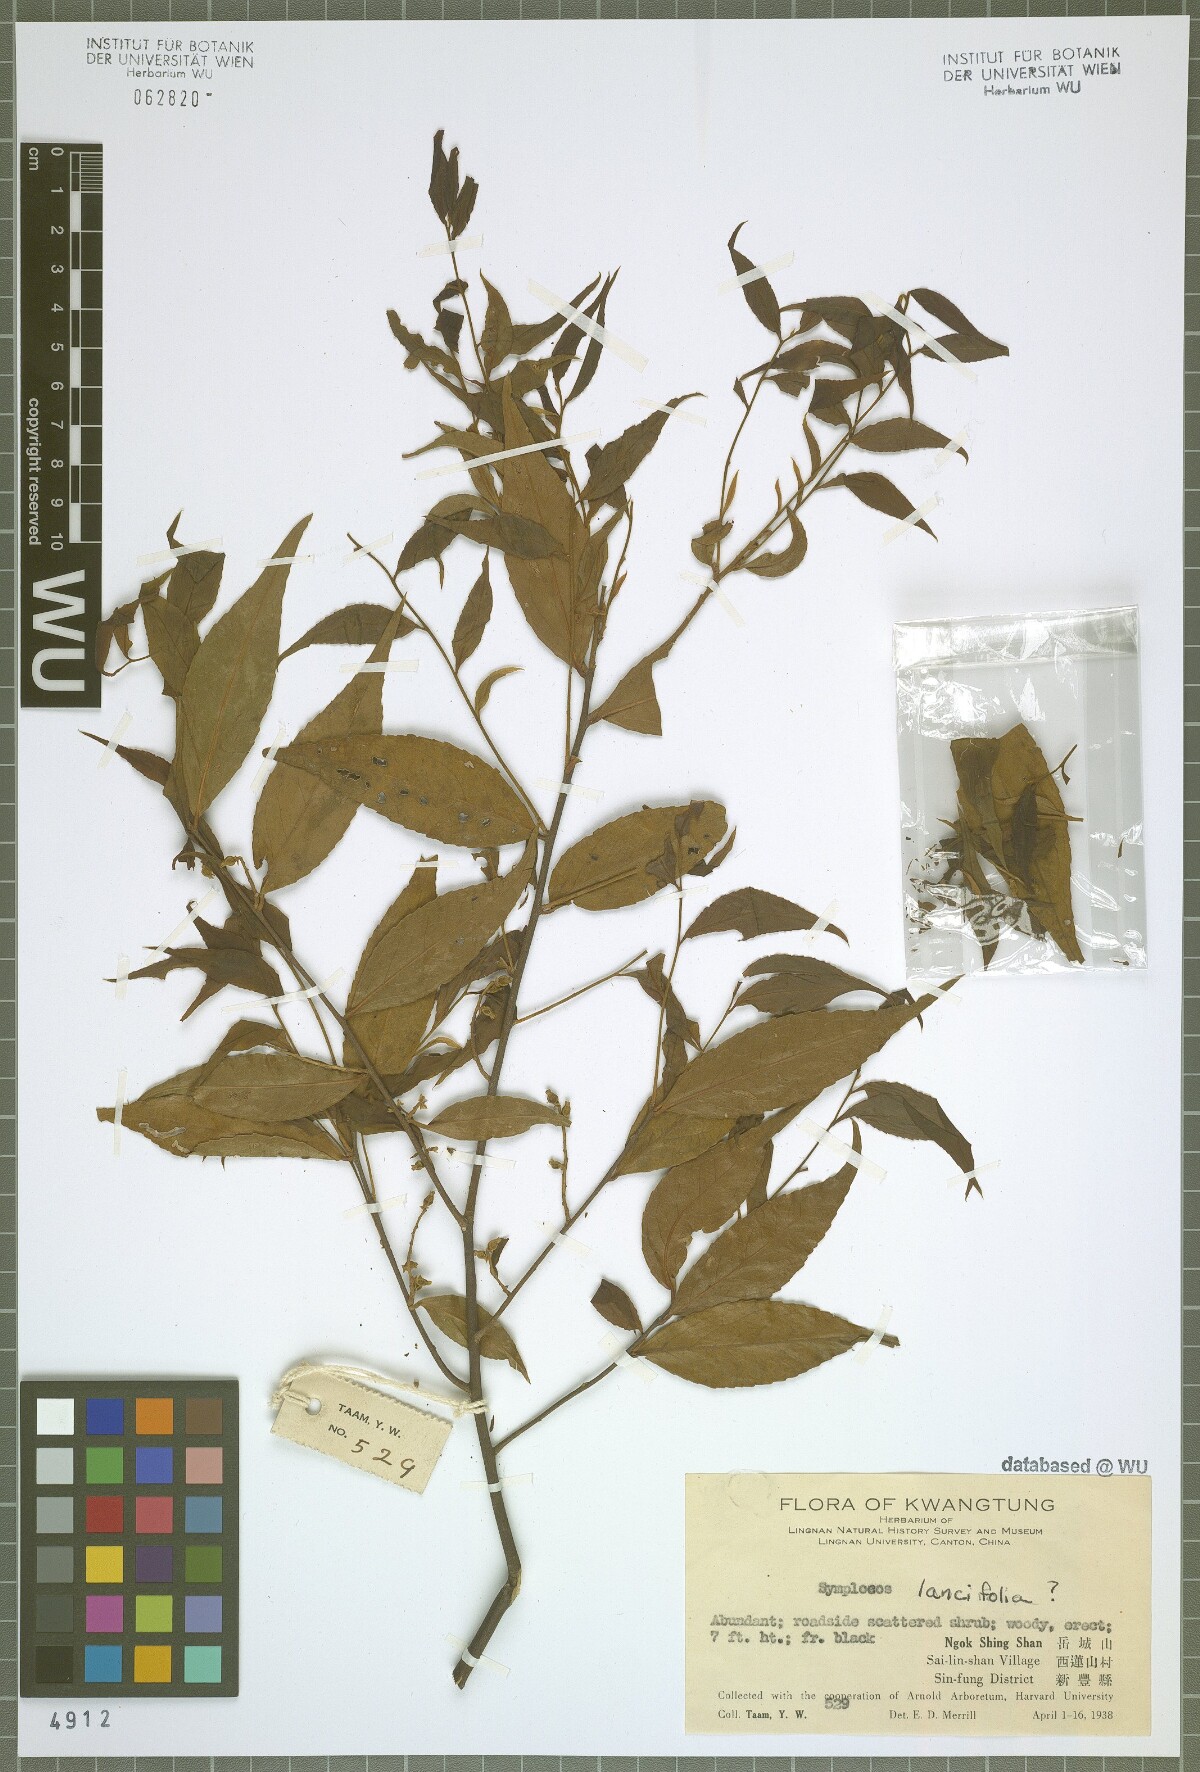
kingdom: Plantae
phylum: Tracheophyta
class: Magnoliopsida
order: Ericales
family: Symplocaceae
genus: Symplocos
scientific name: Symplocos lancifolia
